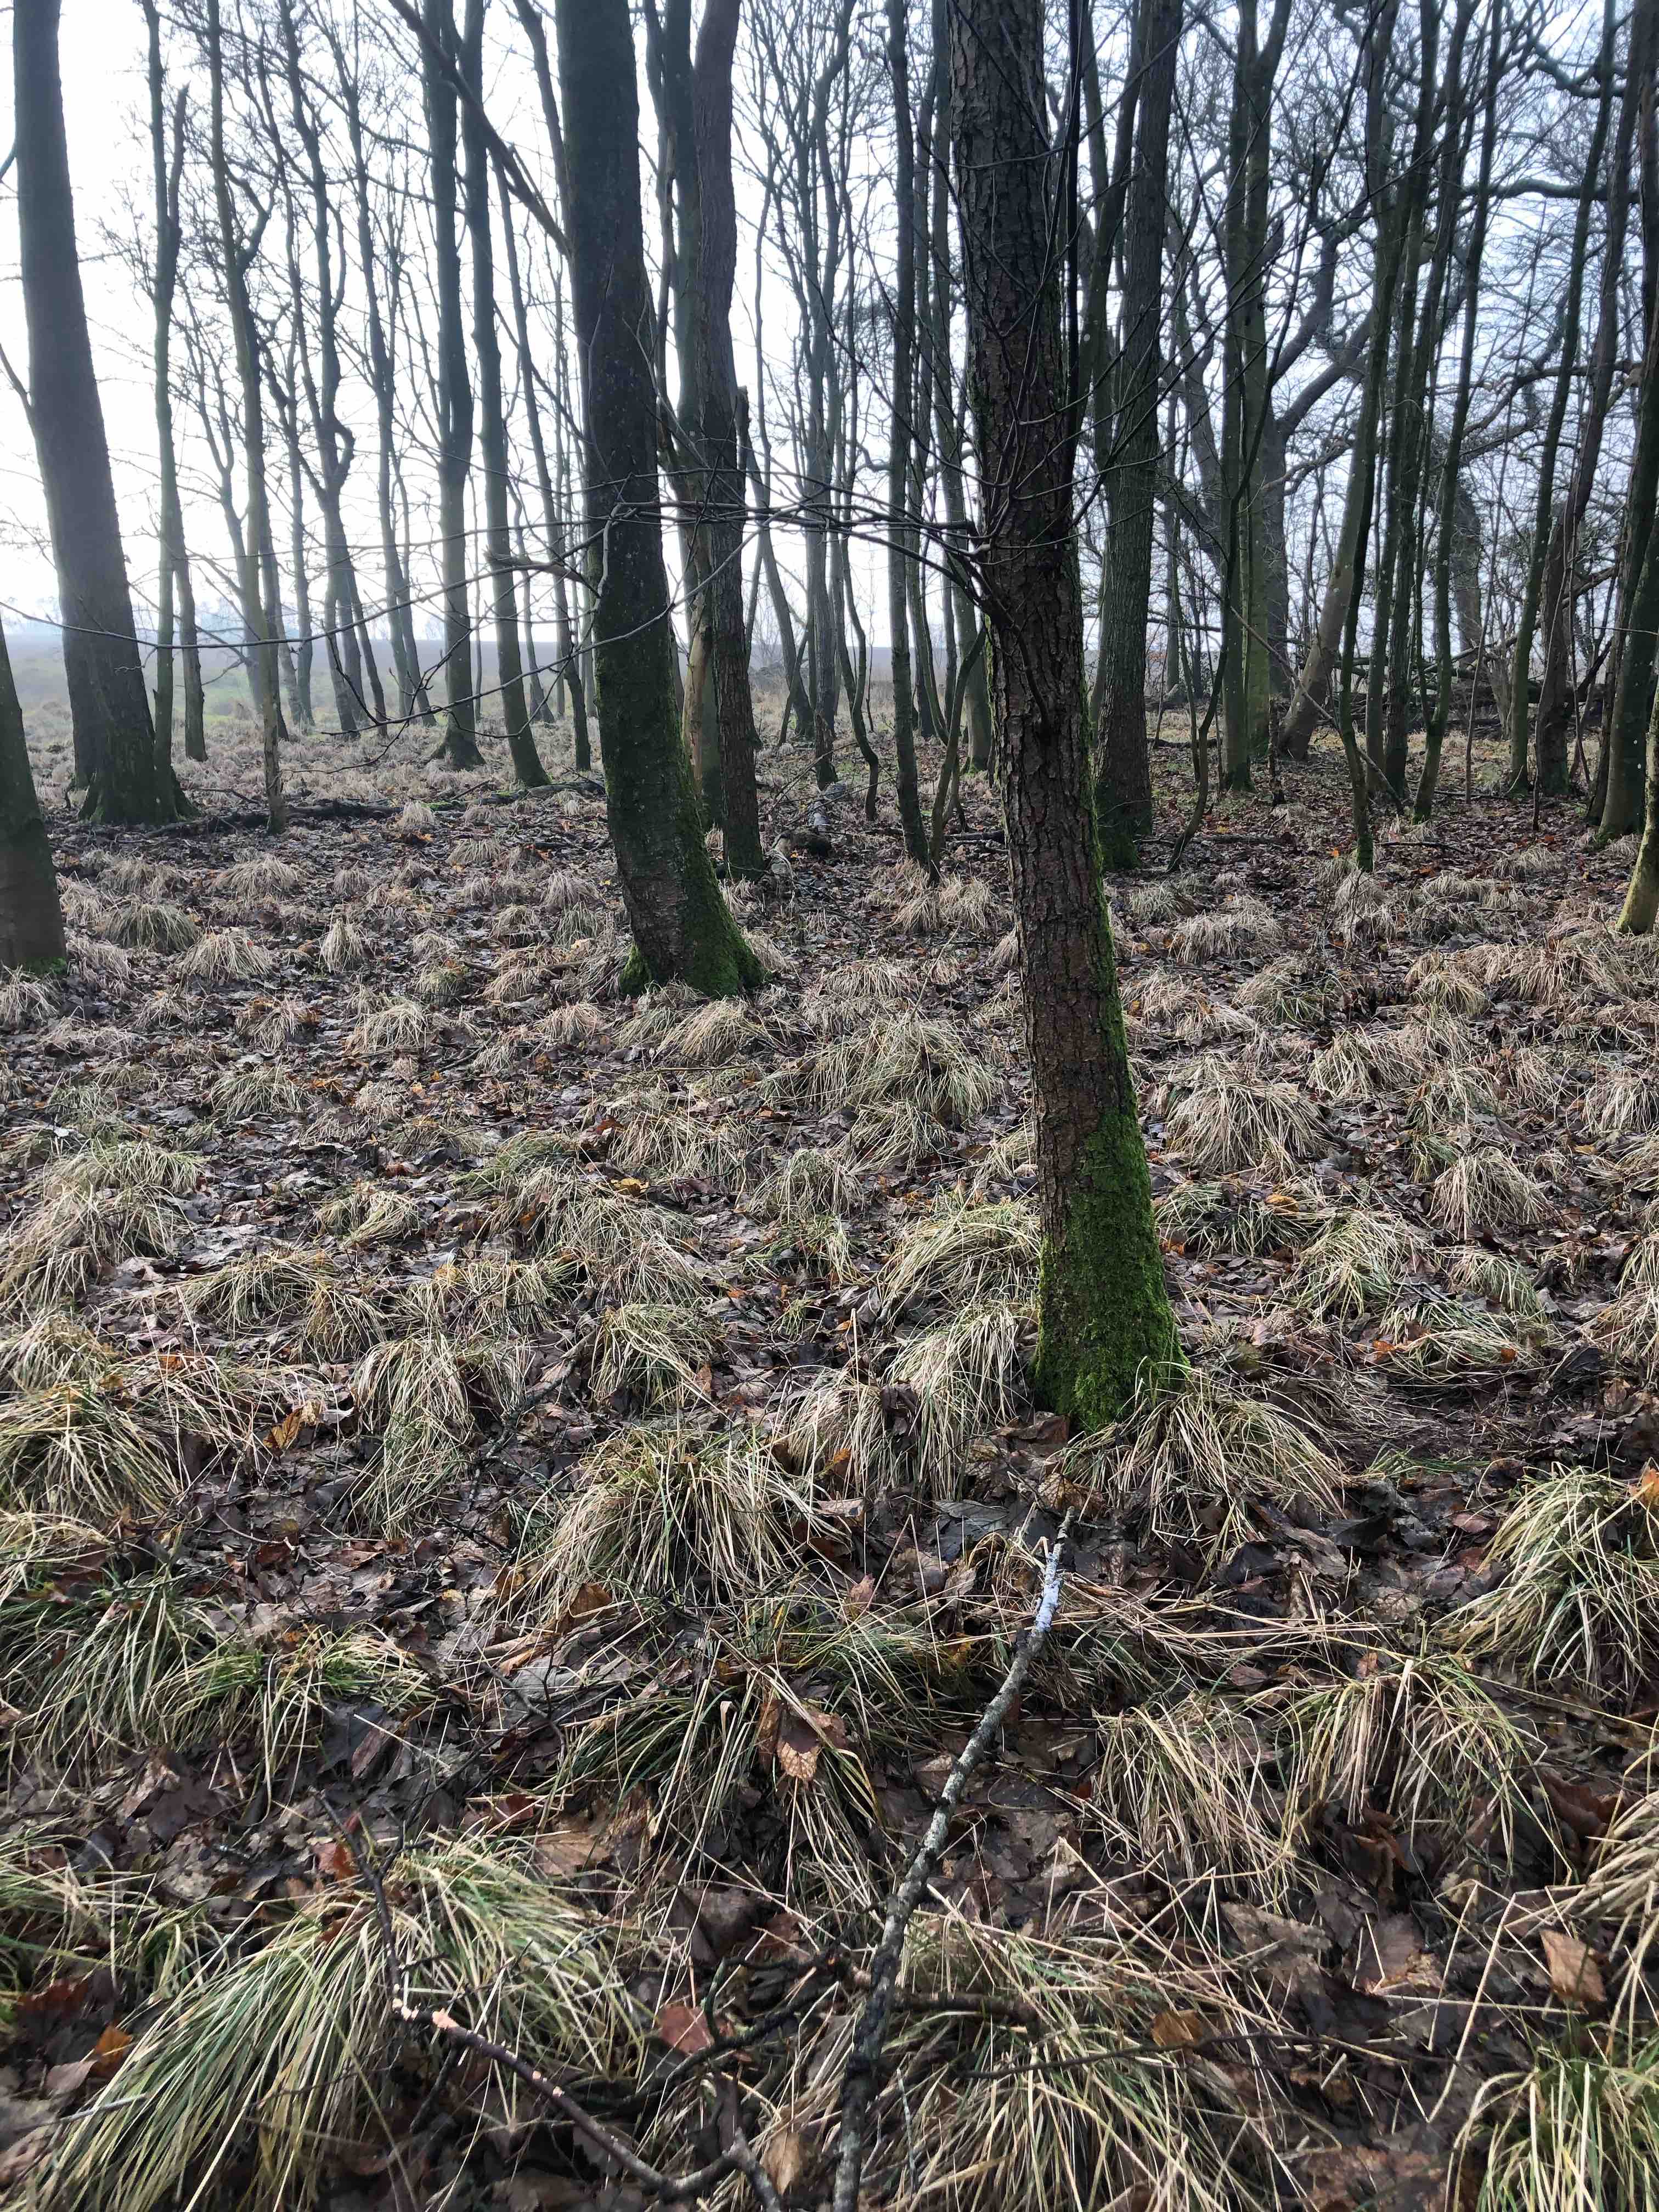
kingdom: Fungi
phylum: Basidiomycota
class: Agaricomycetes
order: Polyporales
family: Polyporaceae
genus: Daedaleopsis
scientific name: Daedaleopsis confragosa
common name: rødmende læderporesvamp
